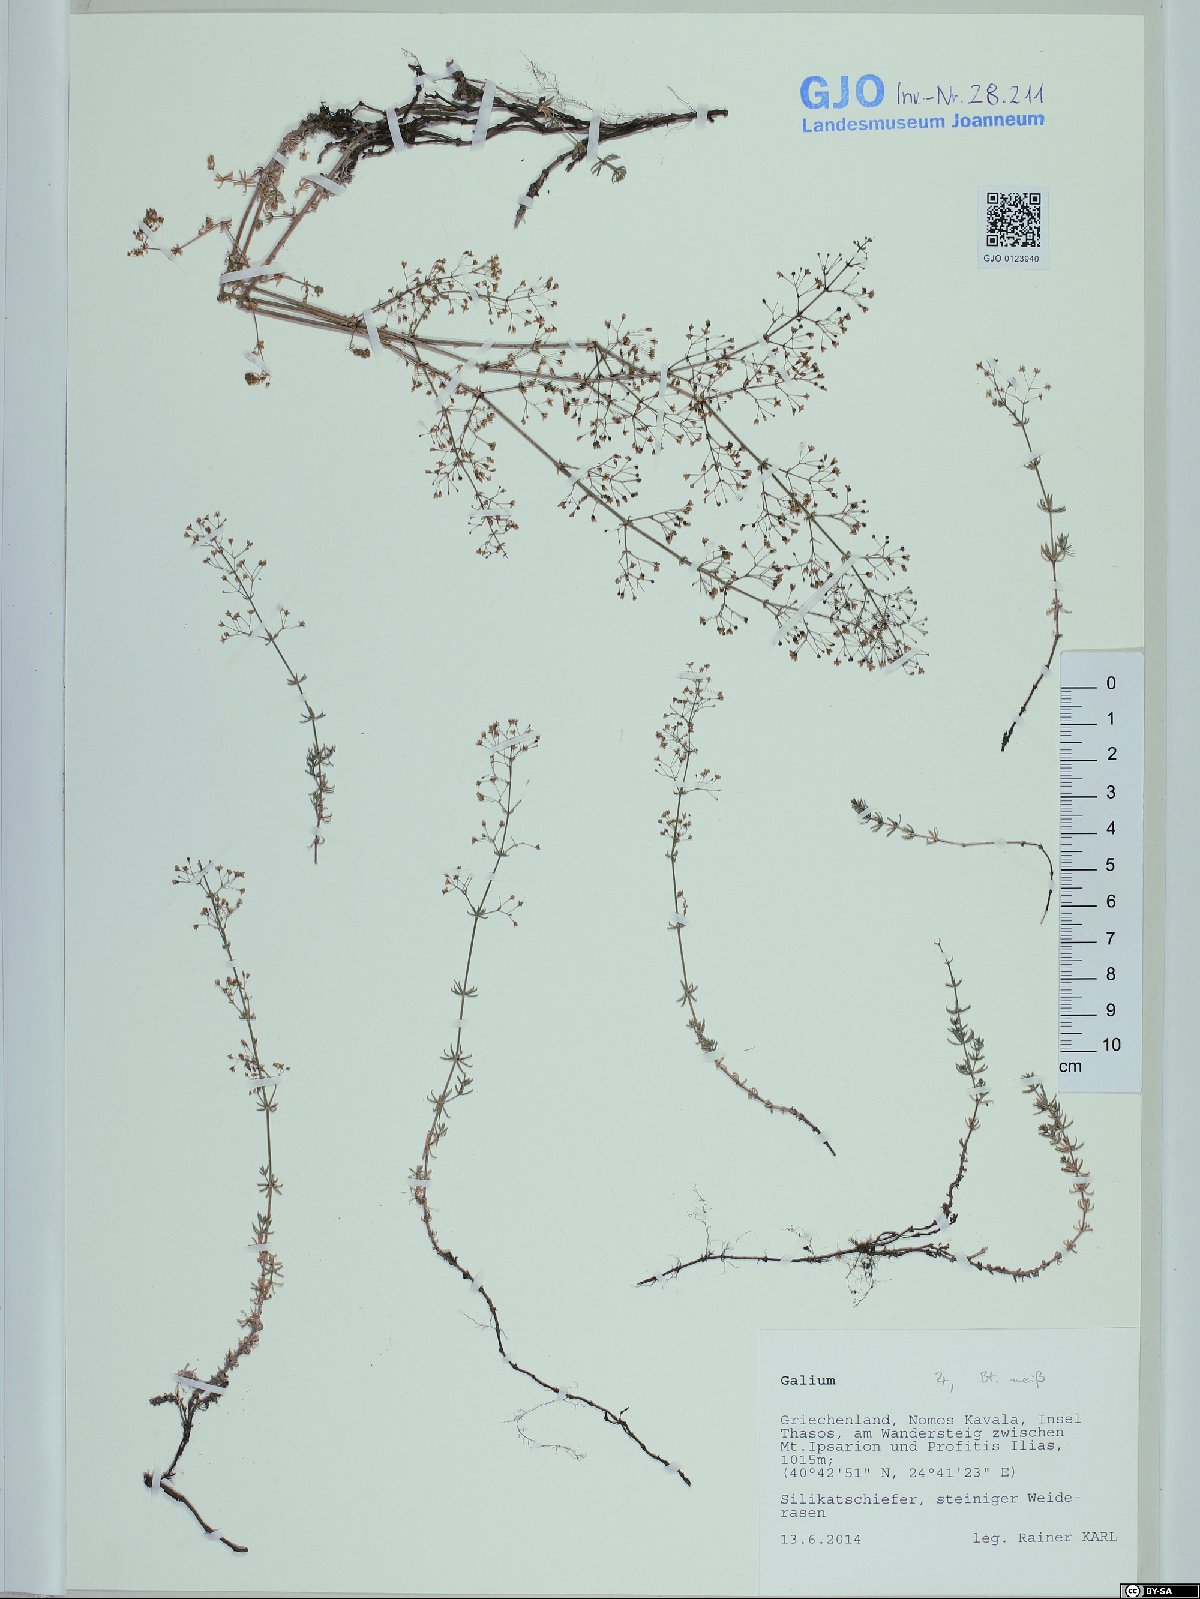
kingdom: Plantae
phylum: Tracheophyta
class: Magnoliopsida
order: Gentianales
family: Rubiaceae
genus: Galium
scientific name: Galium
